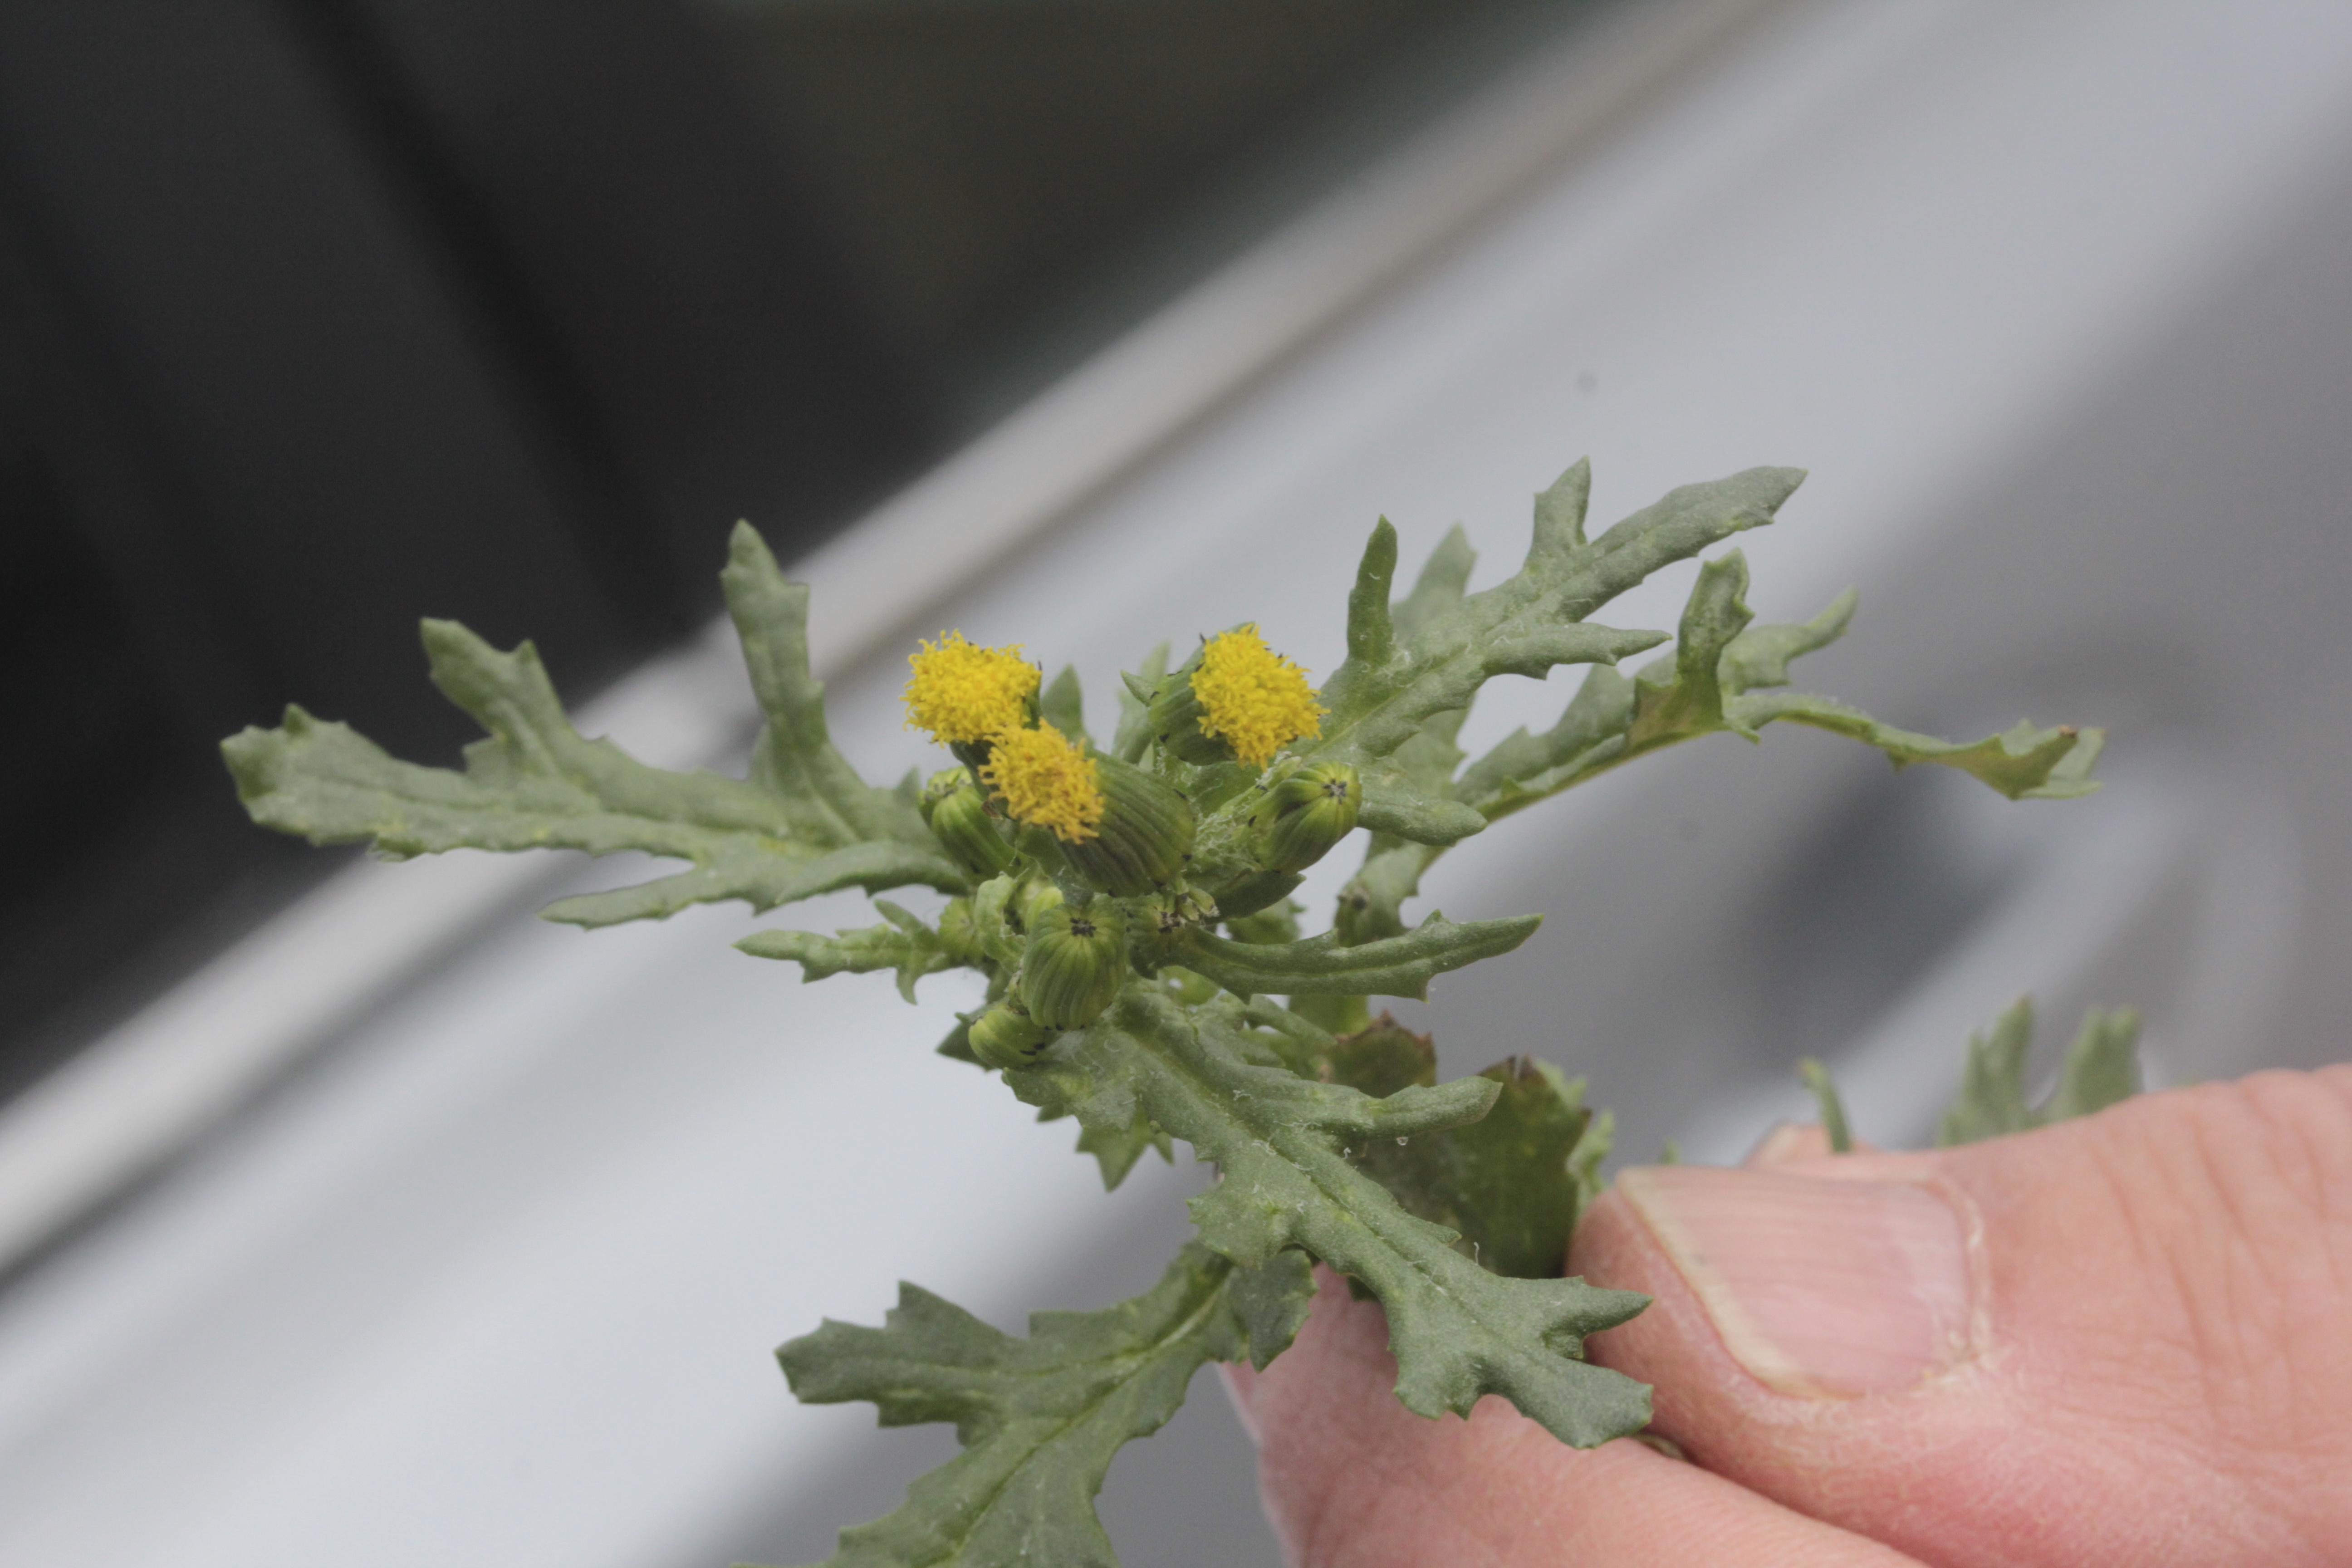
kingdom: Plantae
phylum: Tracheophyta
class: Magnoliopsida
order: Asterales
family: Asteraceae
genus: Senecio
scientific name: Senecio viscosus
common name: Sticky groundsel
